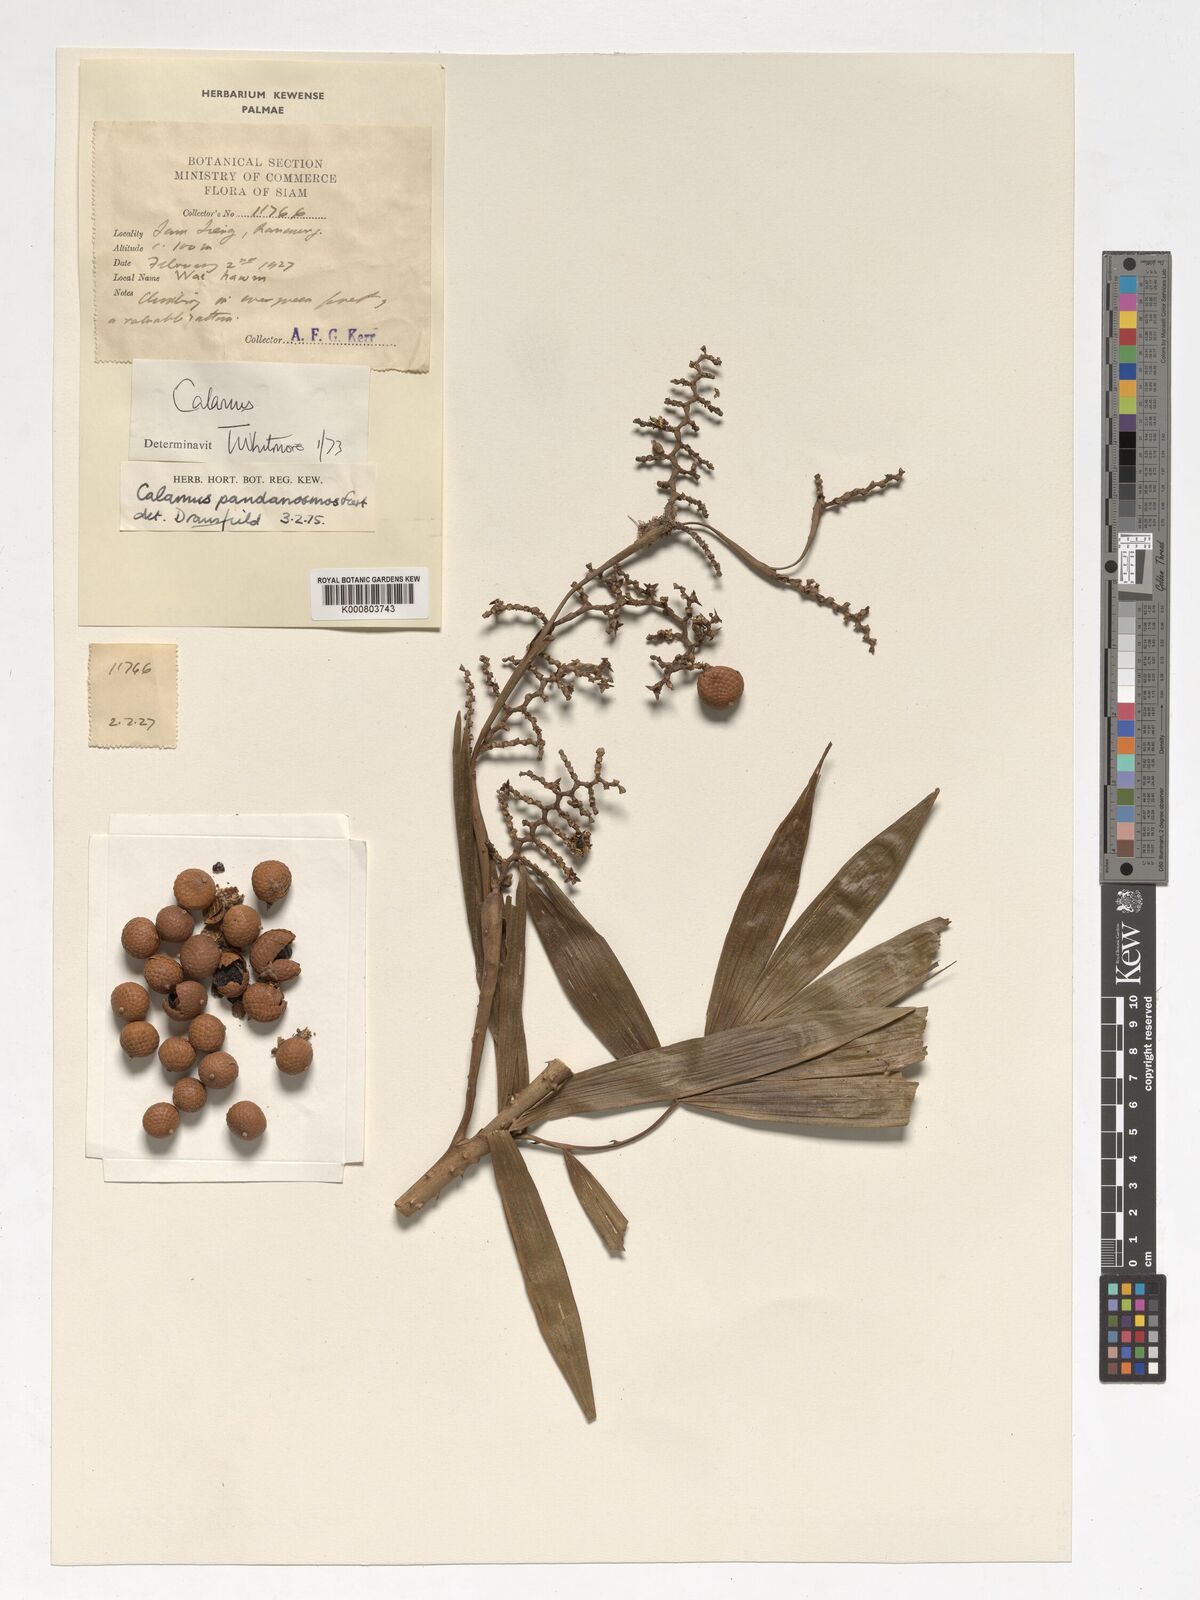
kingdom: Plantae
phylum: Tracheophyta
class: Liliopsida
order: Arecales
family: Arecaceae
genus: Calamus
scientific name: Calamus pandanosmus
